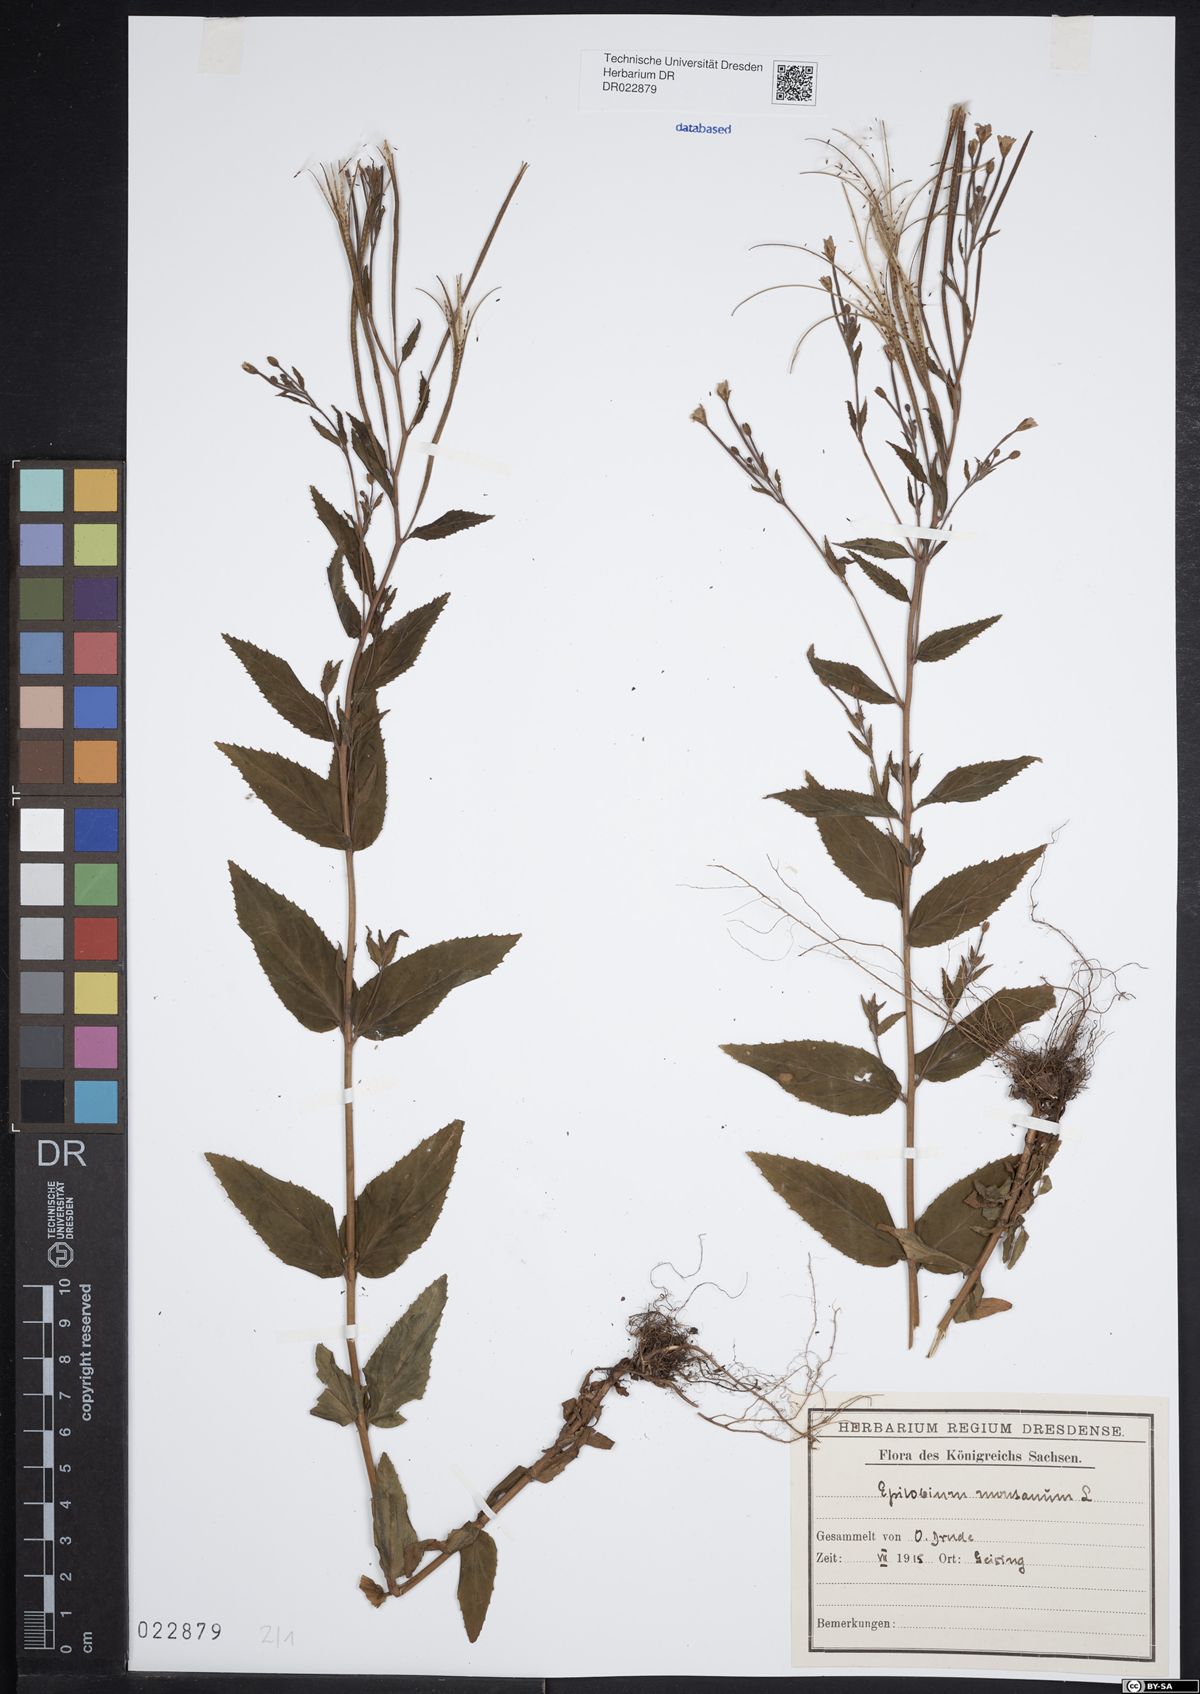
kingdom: Plantae
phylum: Tracheophyta
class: Magnoliopsida
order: Myrtales
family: Onagraceae
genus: Epilobium
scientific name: Epilobium montanum
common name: Broad-leaved willowherb
